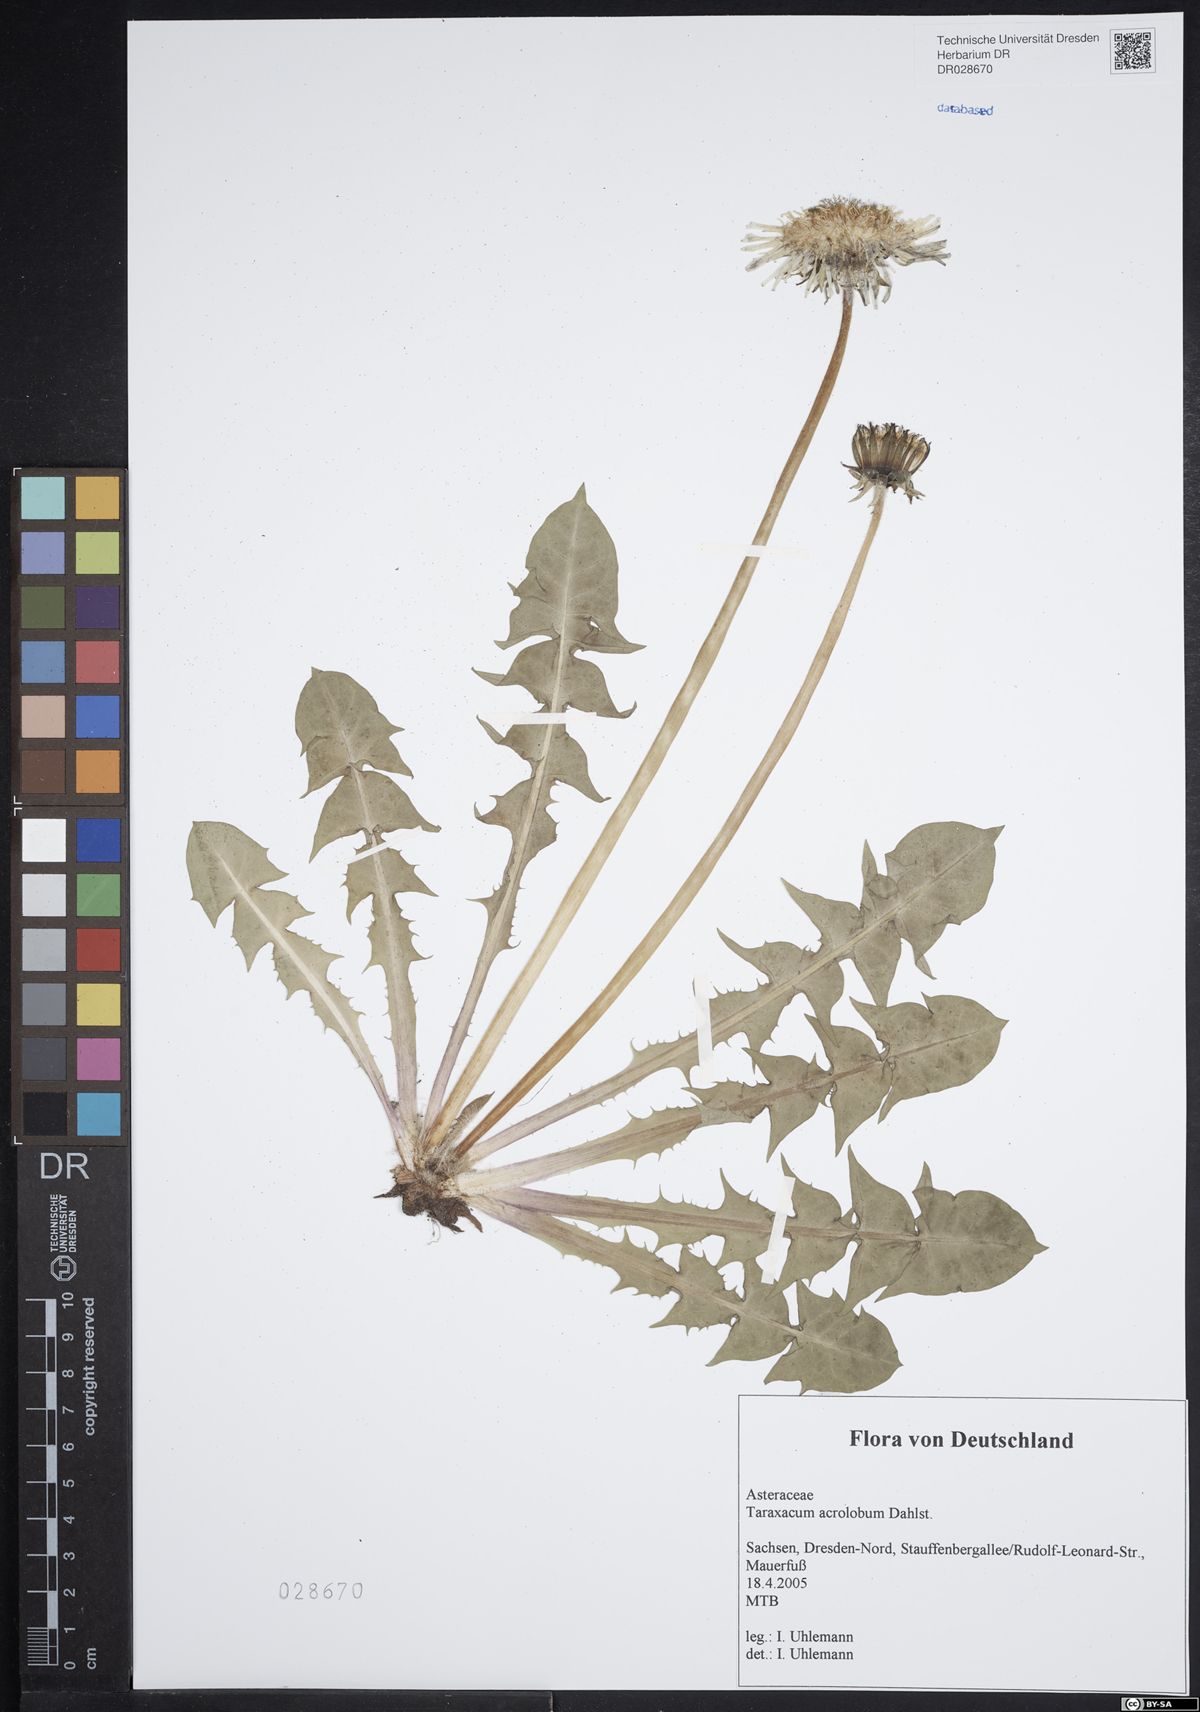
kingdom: Plantae
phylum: Tracheophyta
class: Magnoliopsida
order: Asterales
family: Asteraceae
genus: Taraxacum
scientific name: Taraxacum acrolobum
